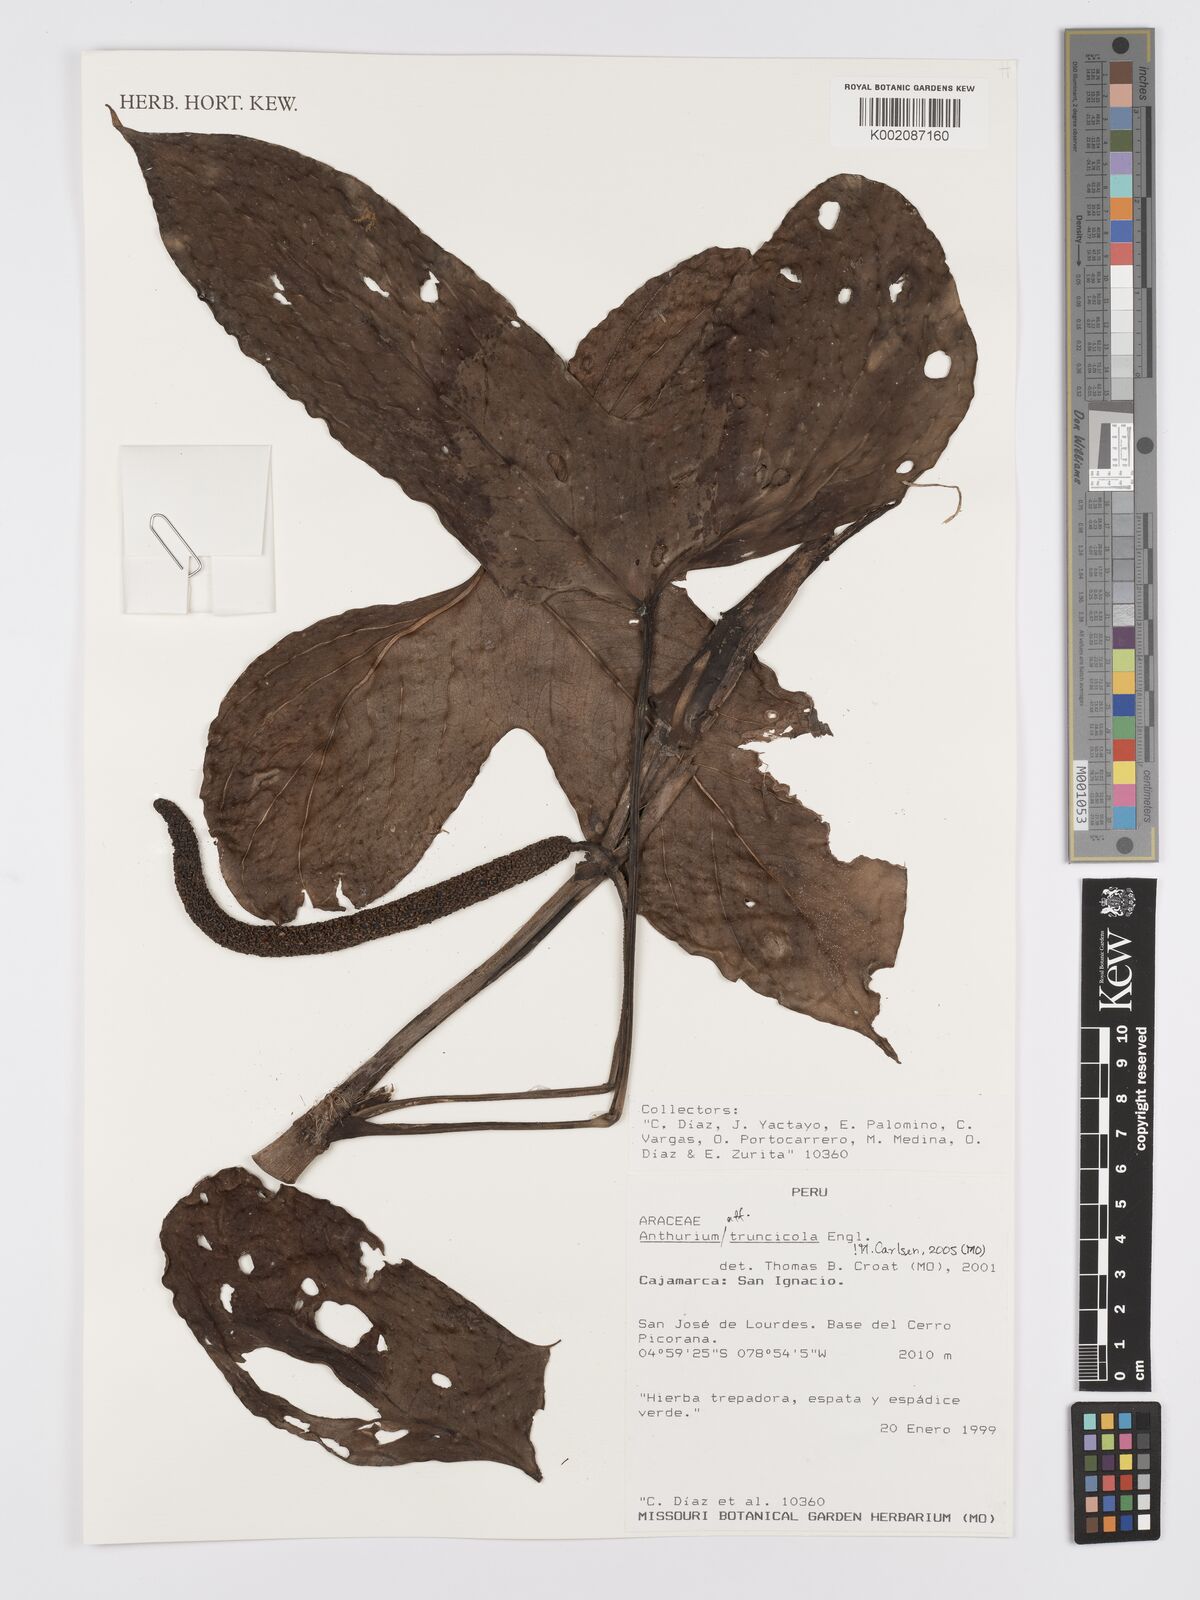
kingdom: Plantae
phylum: Tracheophyta
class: Liliopsida
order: Alismatales
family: Araceae
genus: Anthurium
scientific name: Anthurium truncicola
